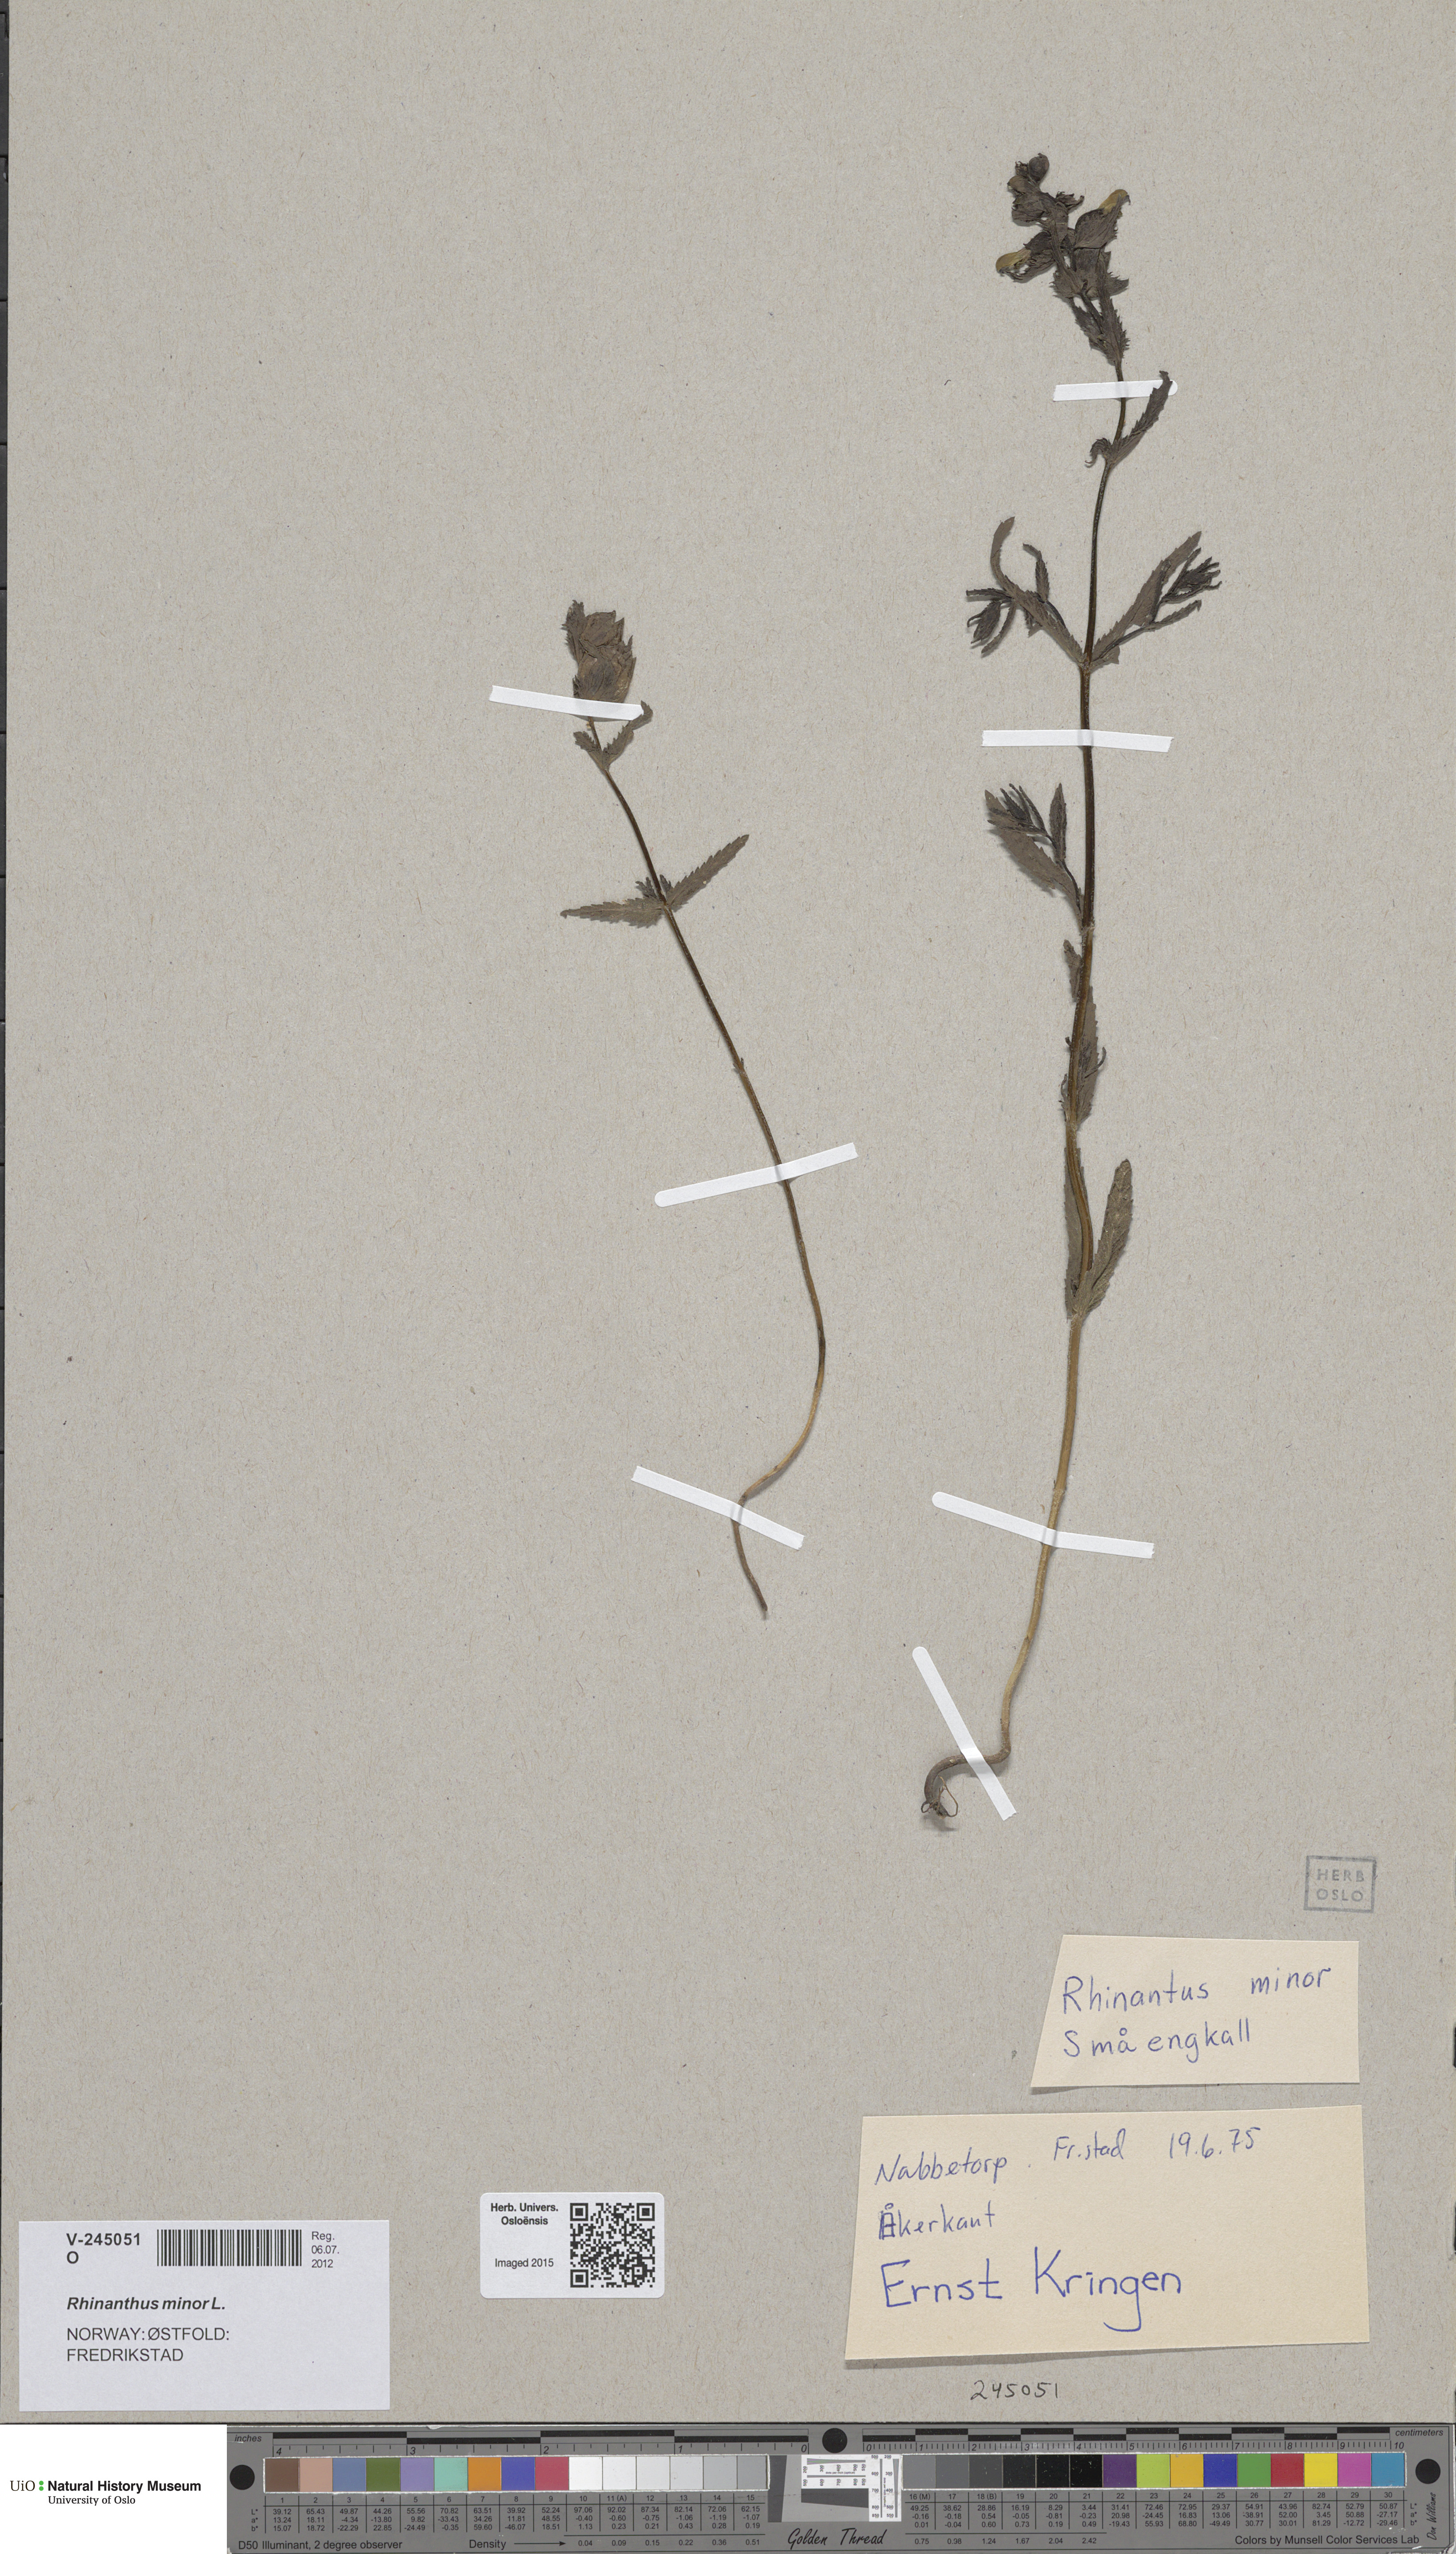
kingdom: Plantae
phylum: Tracheophyta
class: Magnoliopsida
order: Lamiales
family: Orobanchaceae
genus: Rhinanthus
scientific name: Rhinanthus minor
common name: Yellow-rattle
